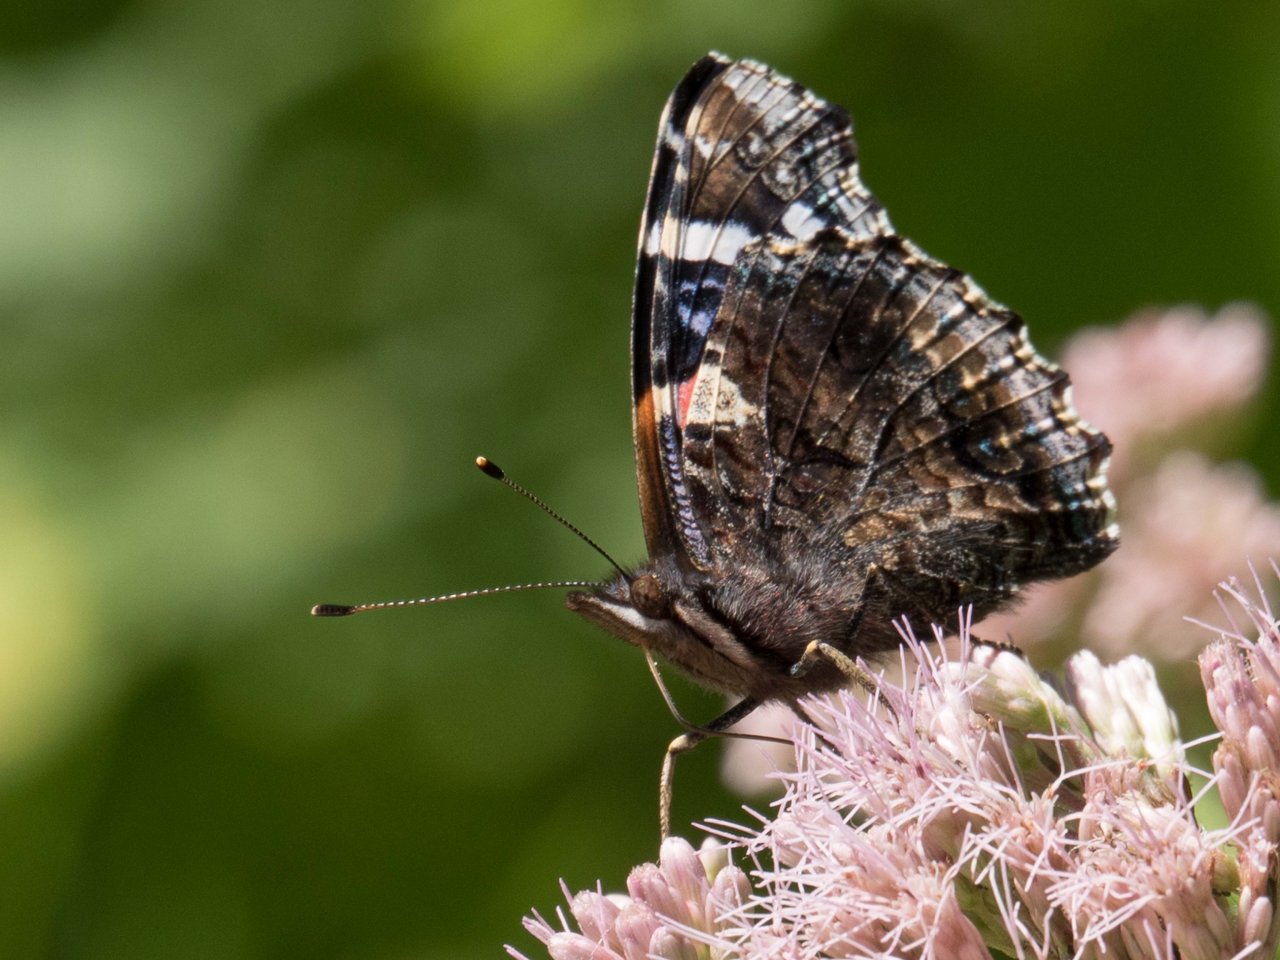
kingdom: Animalia
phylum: Arthropoda
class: Insecta
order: Lepidoptera
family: Nymphalidae
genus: Vanessa
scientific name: Vanessa atalanta
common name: Red Admiral
